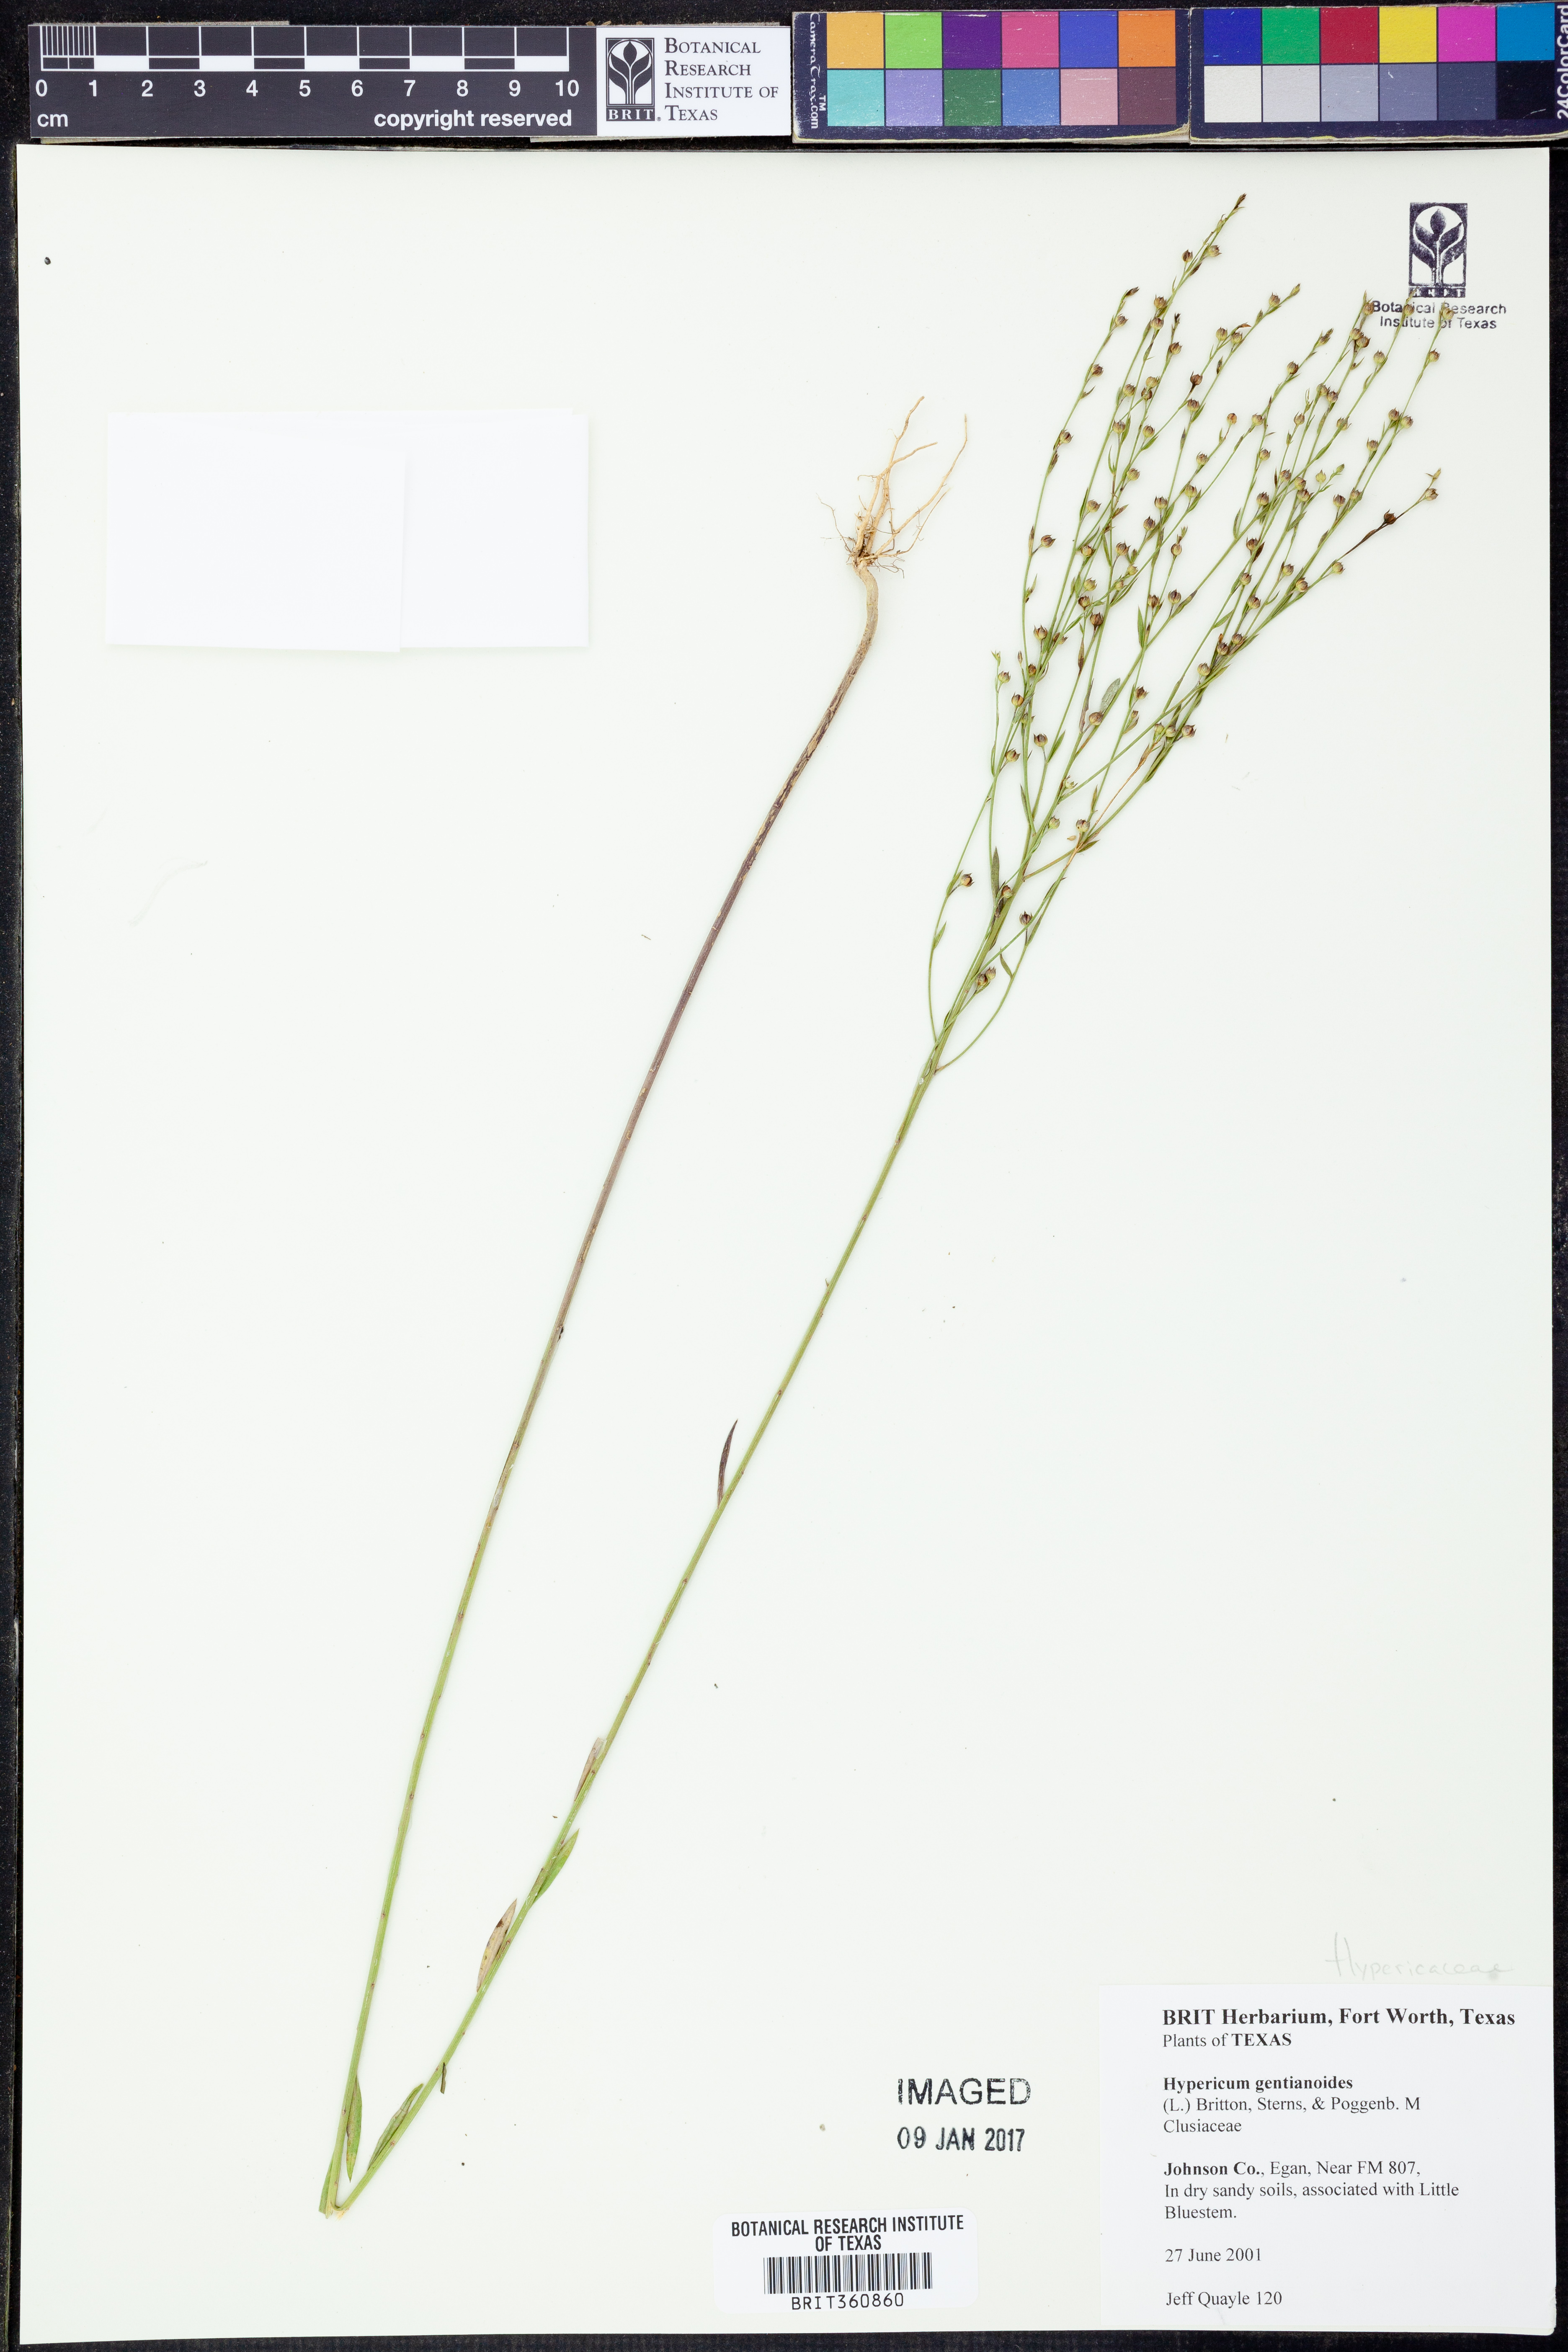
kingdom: Plantae
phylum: Tracheophyta
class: Magnoliopsida
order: Malpighiales
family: Hypericaceae
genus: Hypericum
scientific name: Hypericum gentianoides
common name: Gentian-leaved st. john's-wort
